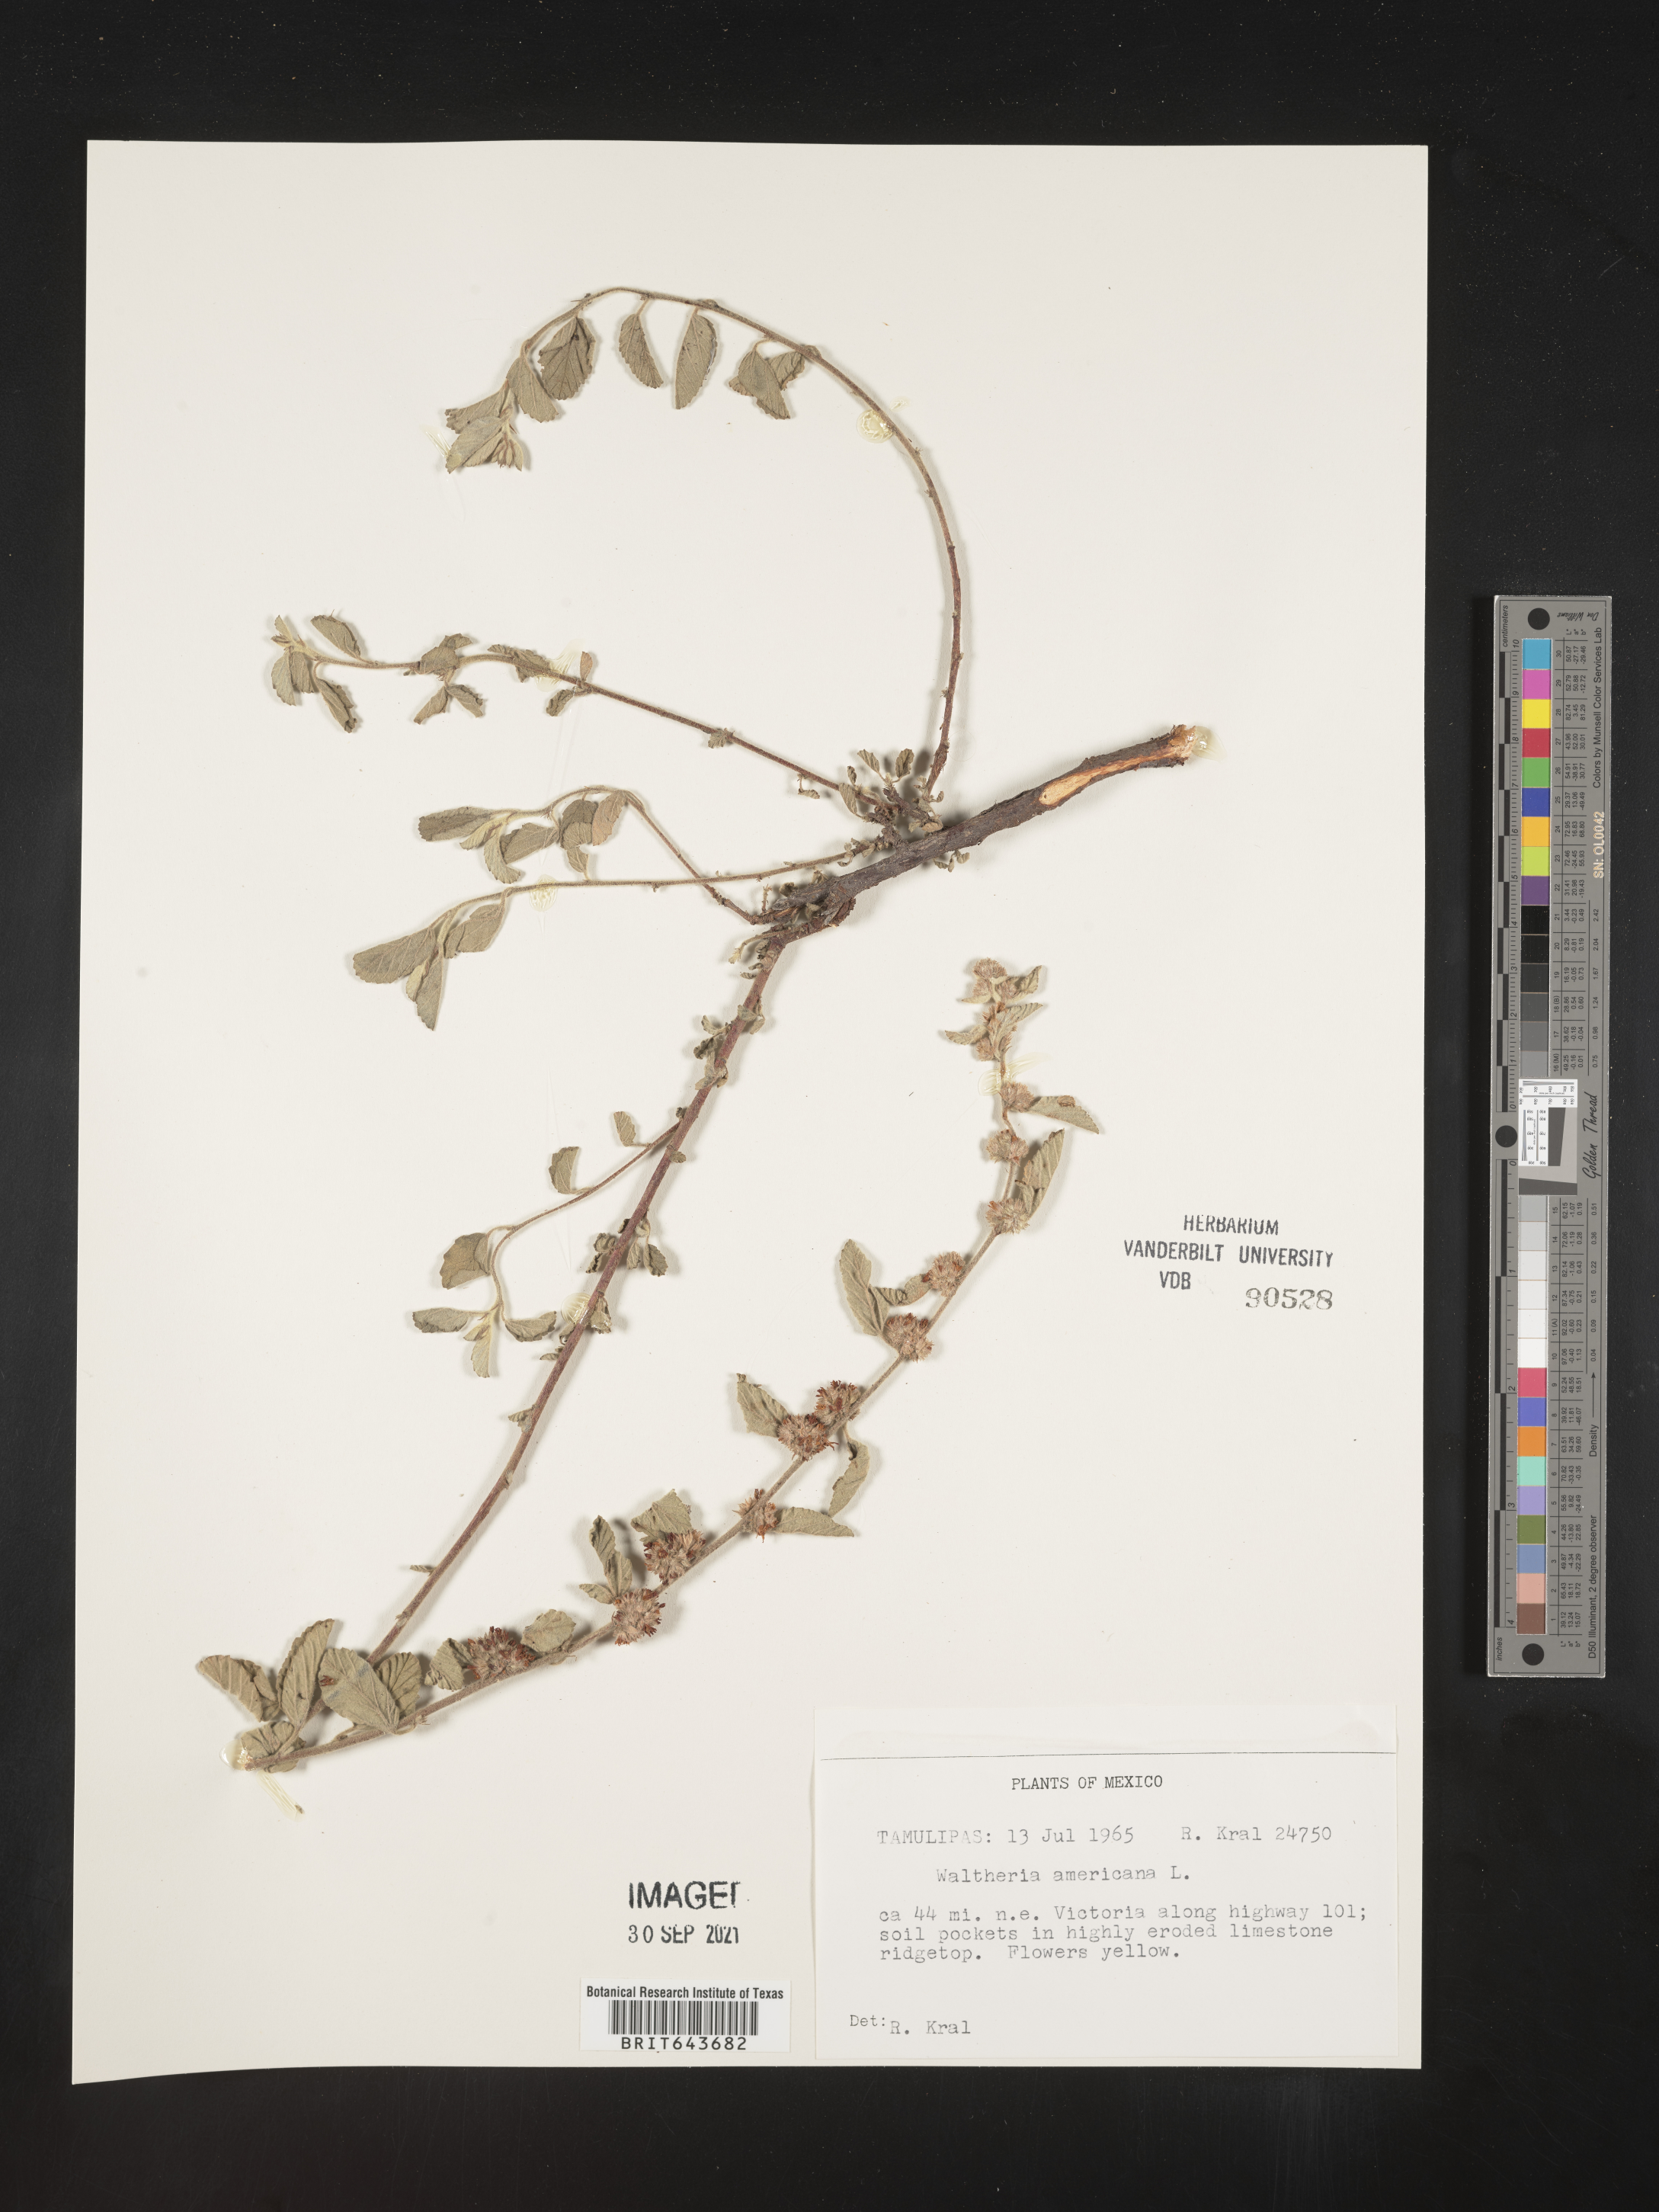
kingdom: Plantae
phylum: Tracheophyta
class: Magnoliopsida
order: Malvales
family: Malvaceae
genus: Waltheria
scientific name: Waltheria
